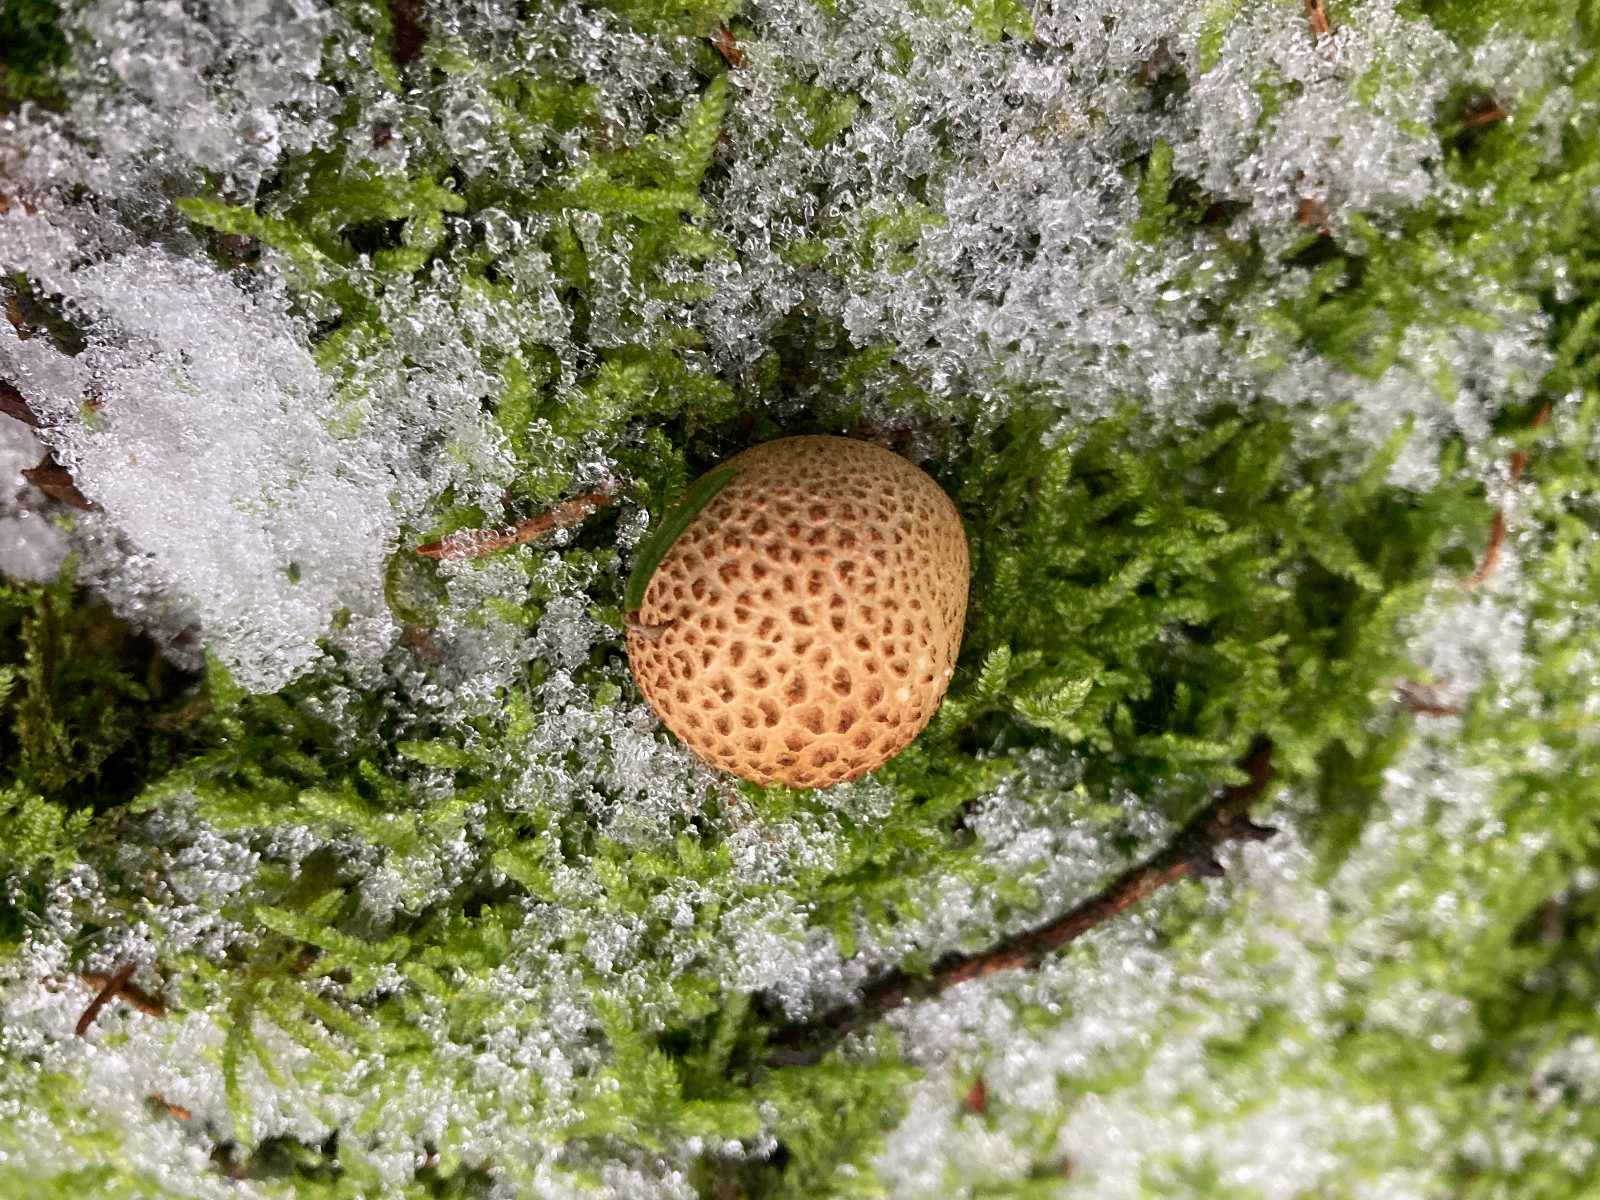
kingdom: Fungi
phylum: Basidiomycota
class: Agaricomycetes
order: Boletales
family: Sclerodermataceae
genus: Scleroderma
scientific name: Scleroderma citrinum
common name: almindelig bruskbold
